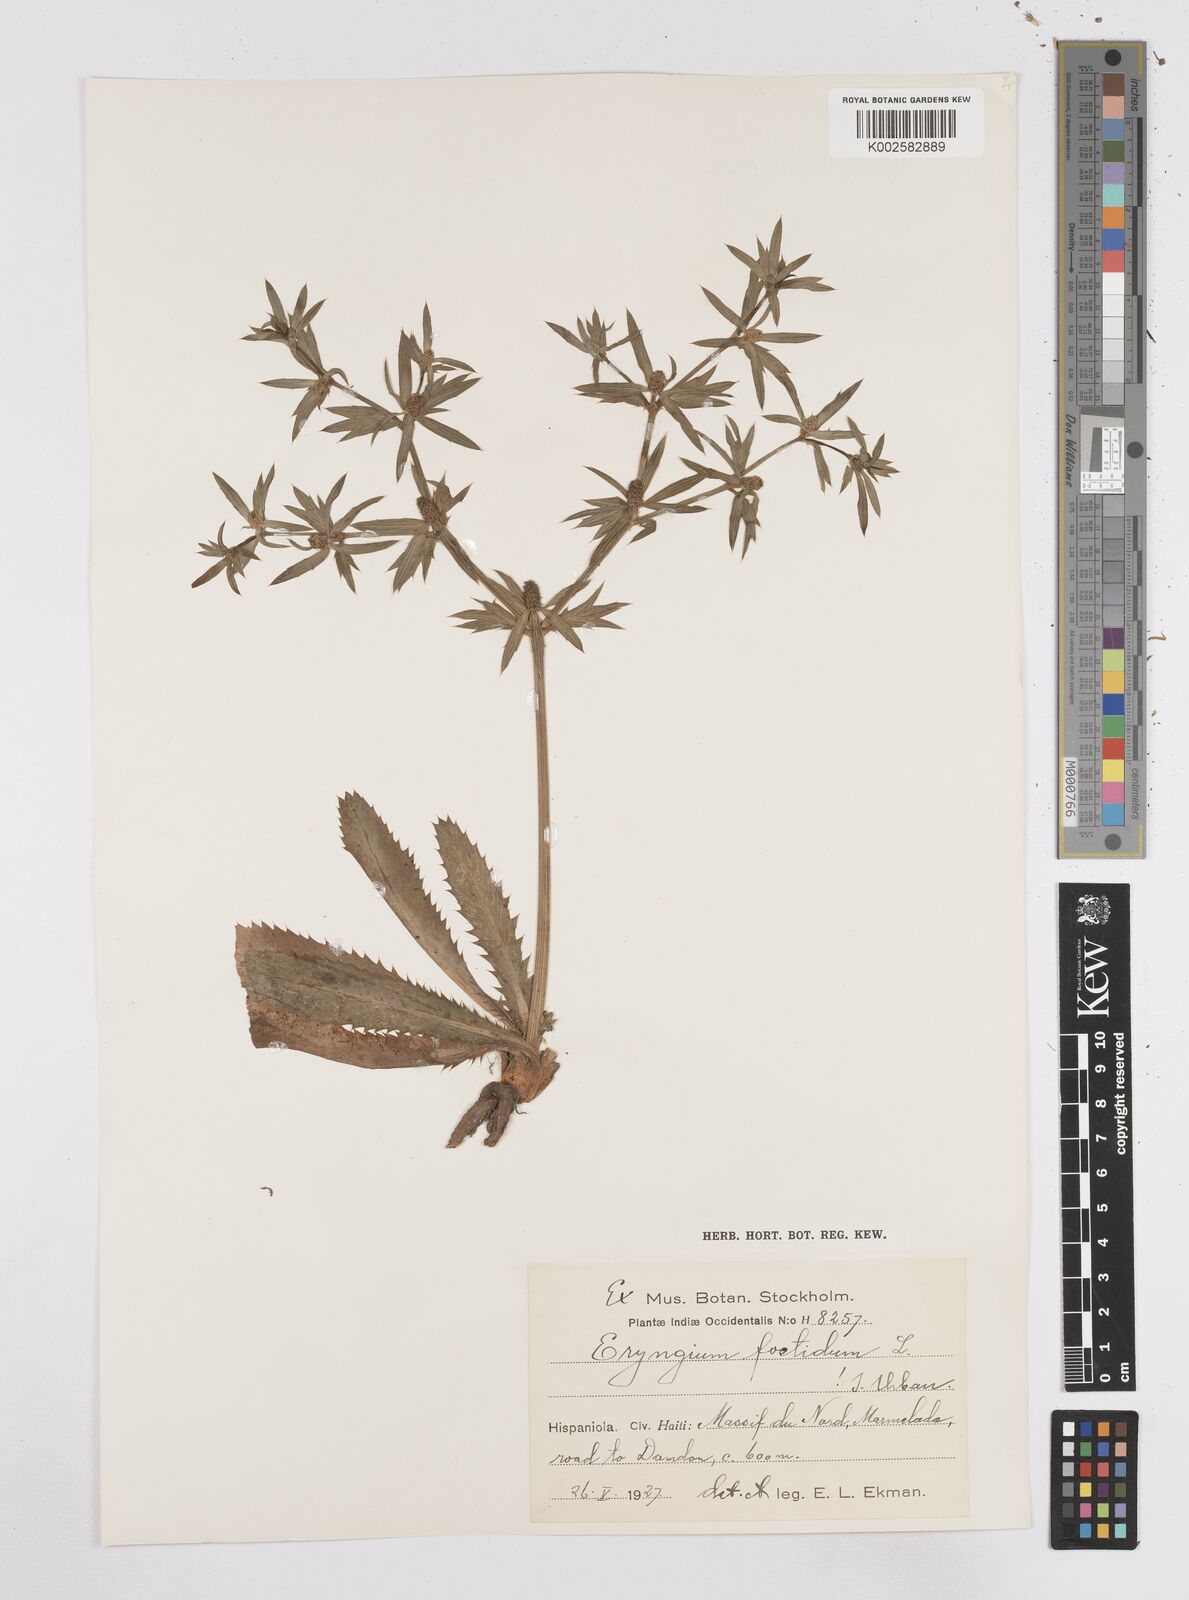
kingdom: Plantae
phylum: Tracheophyta
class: Magnoliopsida
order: Apiales
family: Apiaceae
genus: Eryngium
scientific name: Eryngium foetidum
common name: Fitweed
